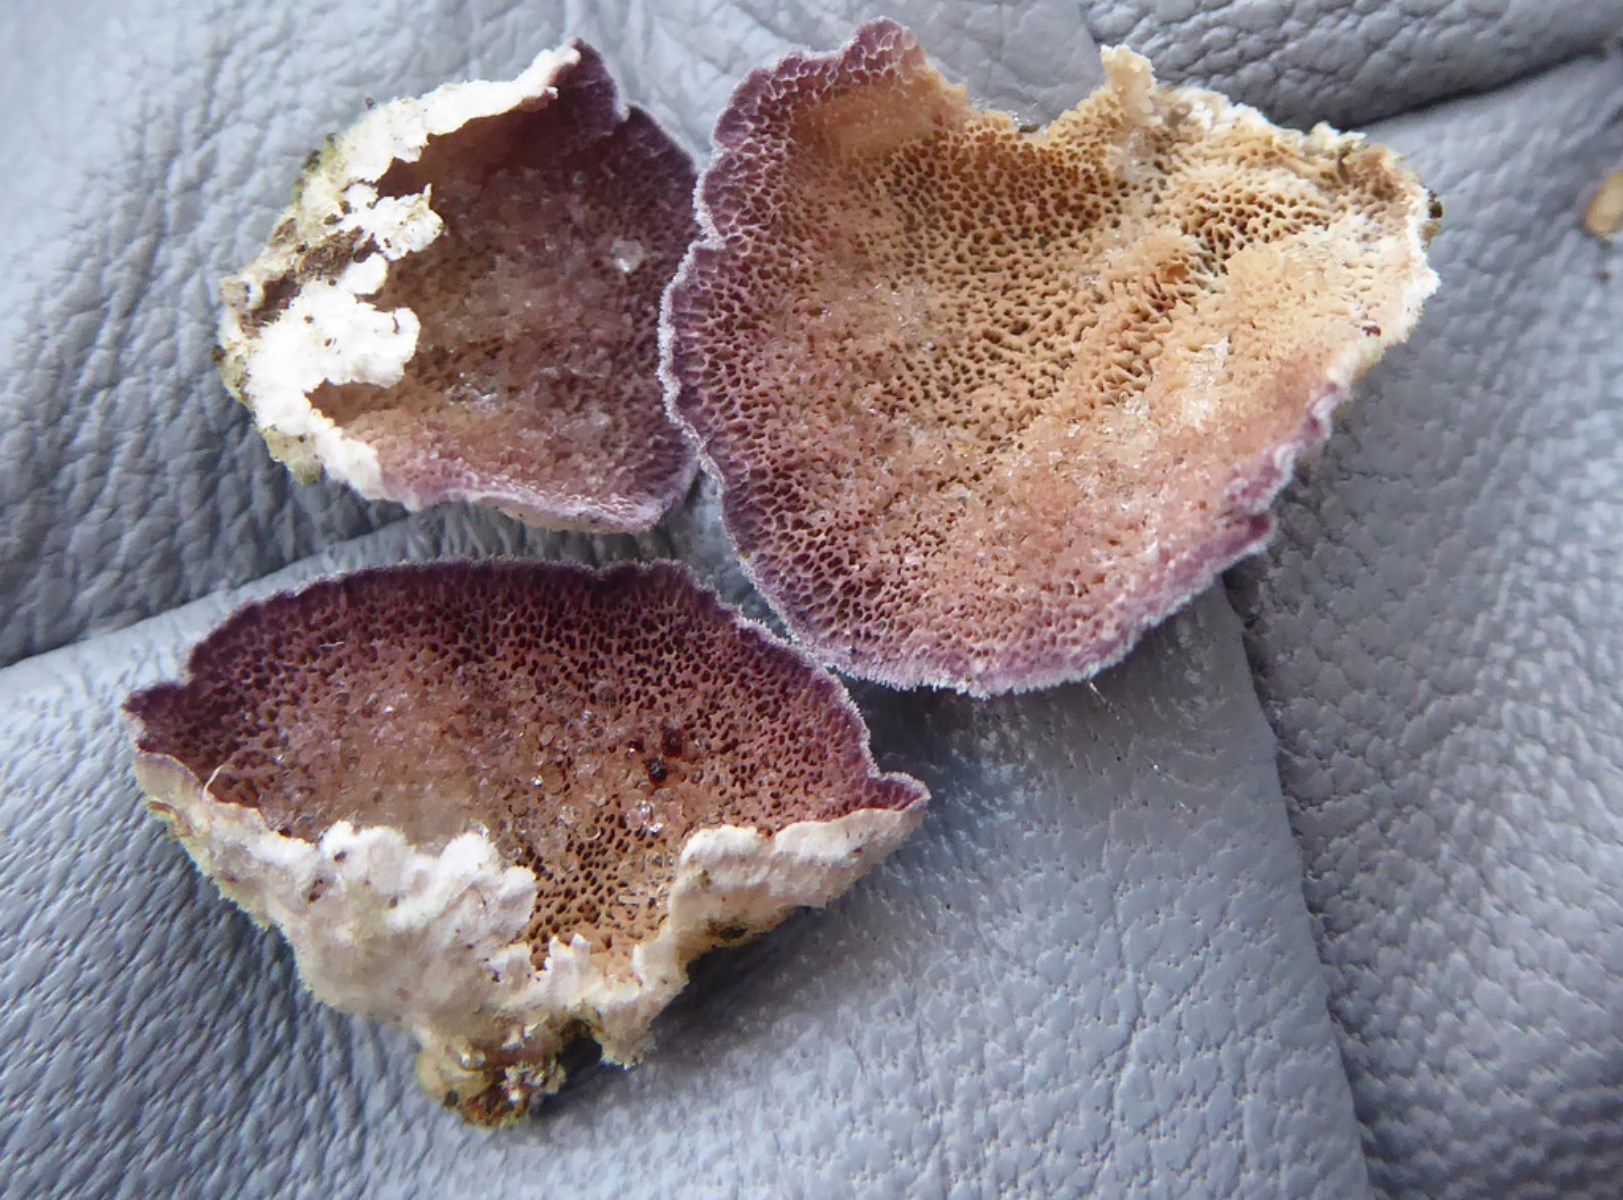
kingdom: Fungi
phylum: Basidiomycota
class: Agaricomycetes
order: Hymenochaetales
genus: Trichaptum
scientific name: Trichaptum abietinum
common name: almindelig violporesvamp
